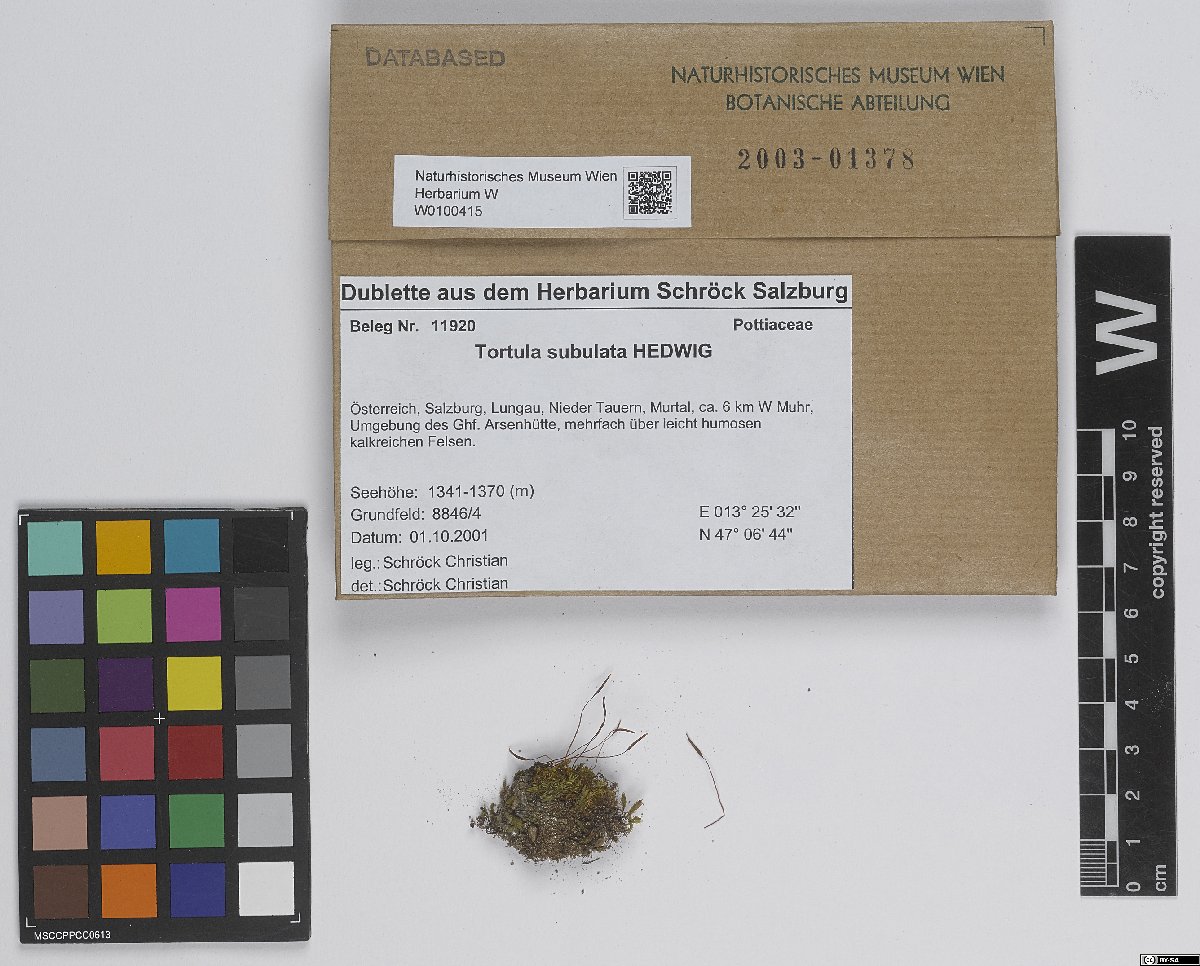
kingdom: Plantae
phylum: Bryophyta
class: Bryopsida
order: Pottiales
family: Pottiaceae
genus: Tortula
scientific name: Tortula subulata
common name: Upright screw-moss
